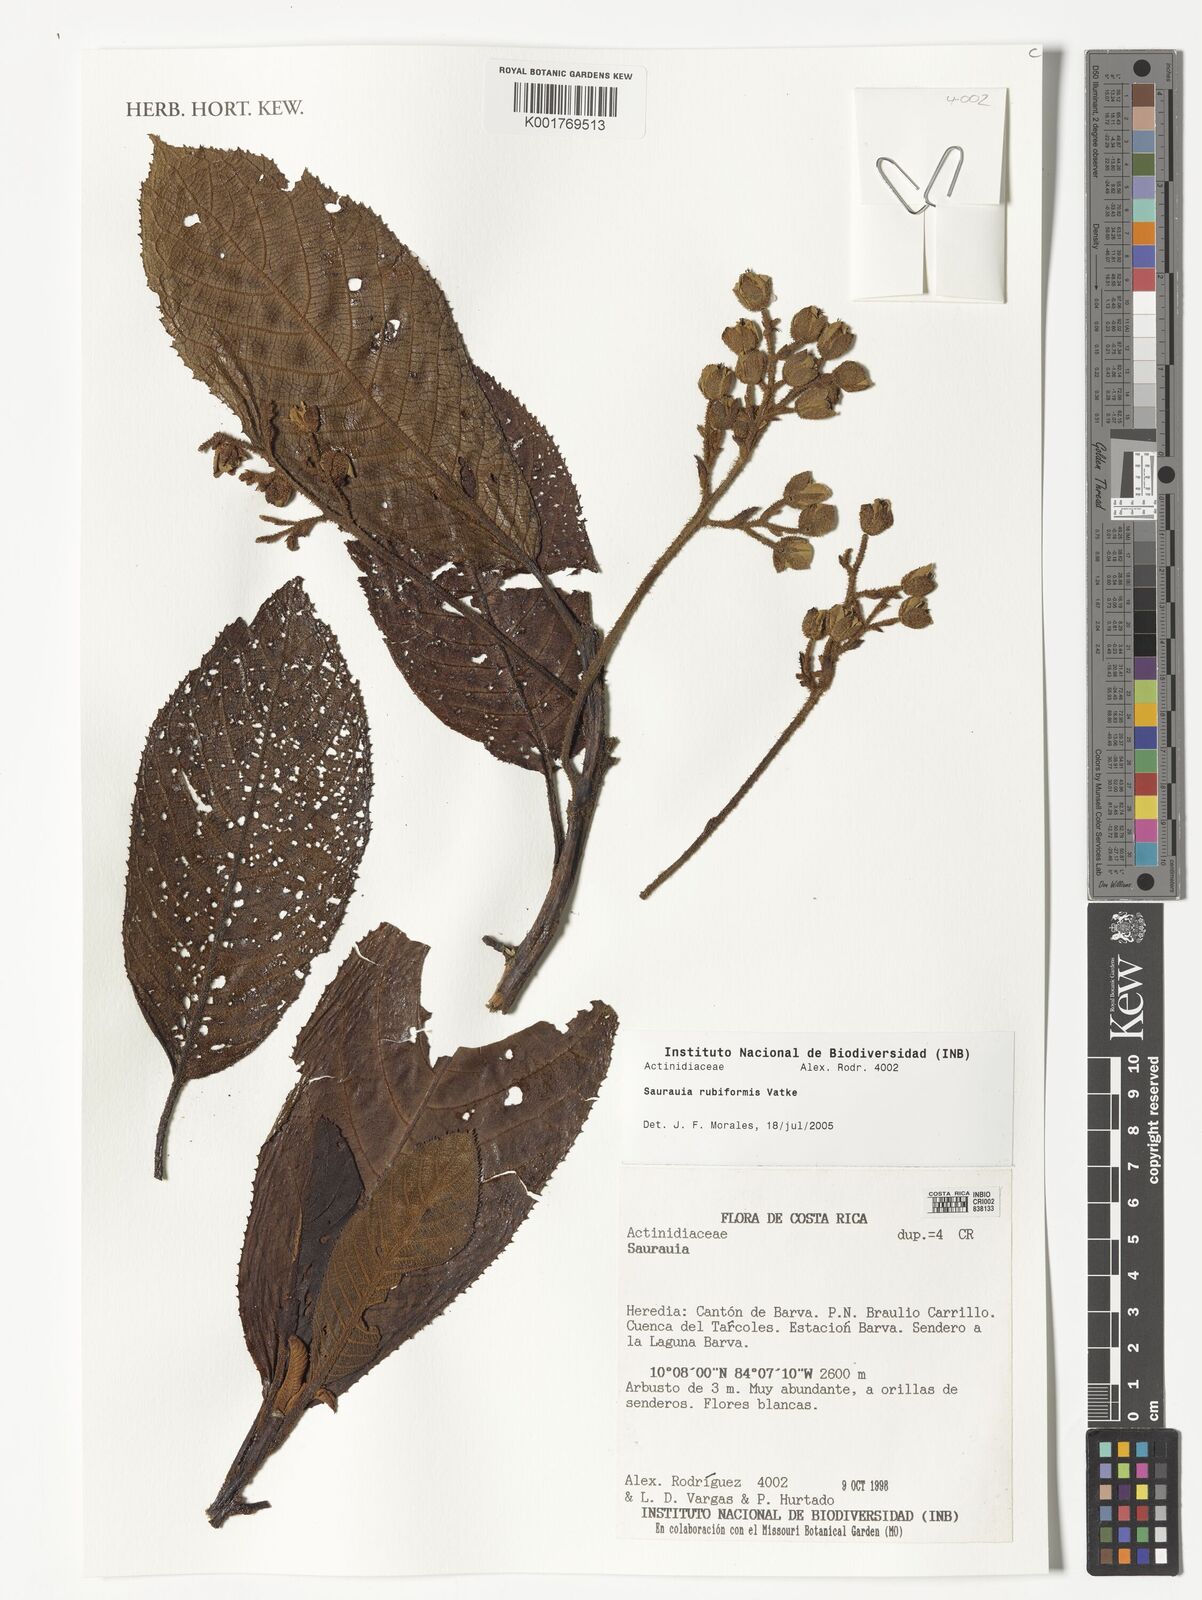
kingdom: Plantae
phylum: Tracheophyta
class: Magnoliopsida
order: Ericales
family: Actinidiaceae
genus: Saurauia
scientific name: Saurauia rubiformis
